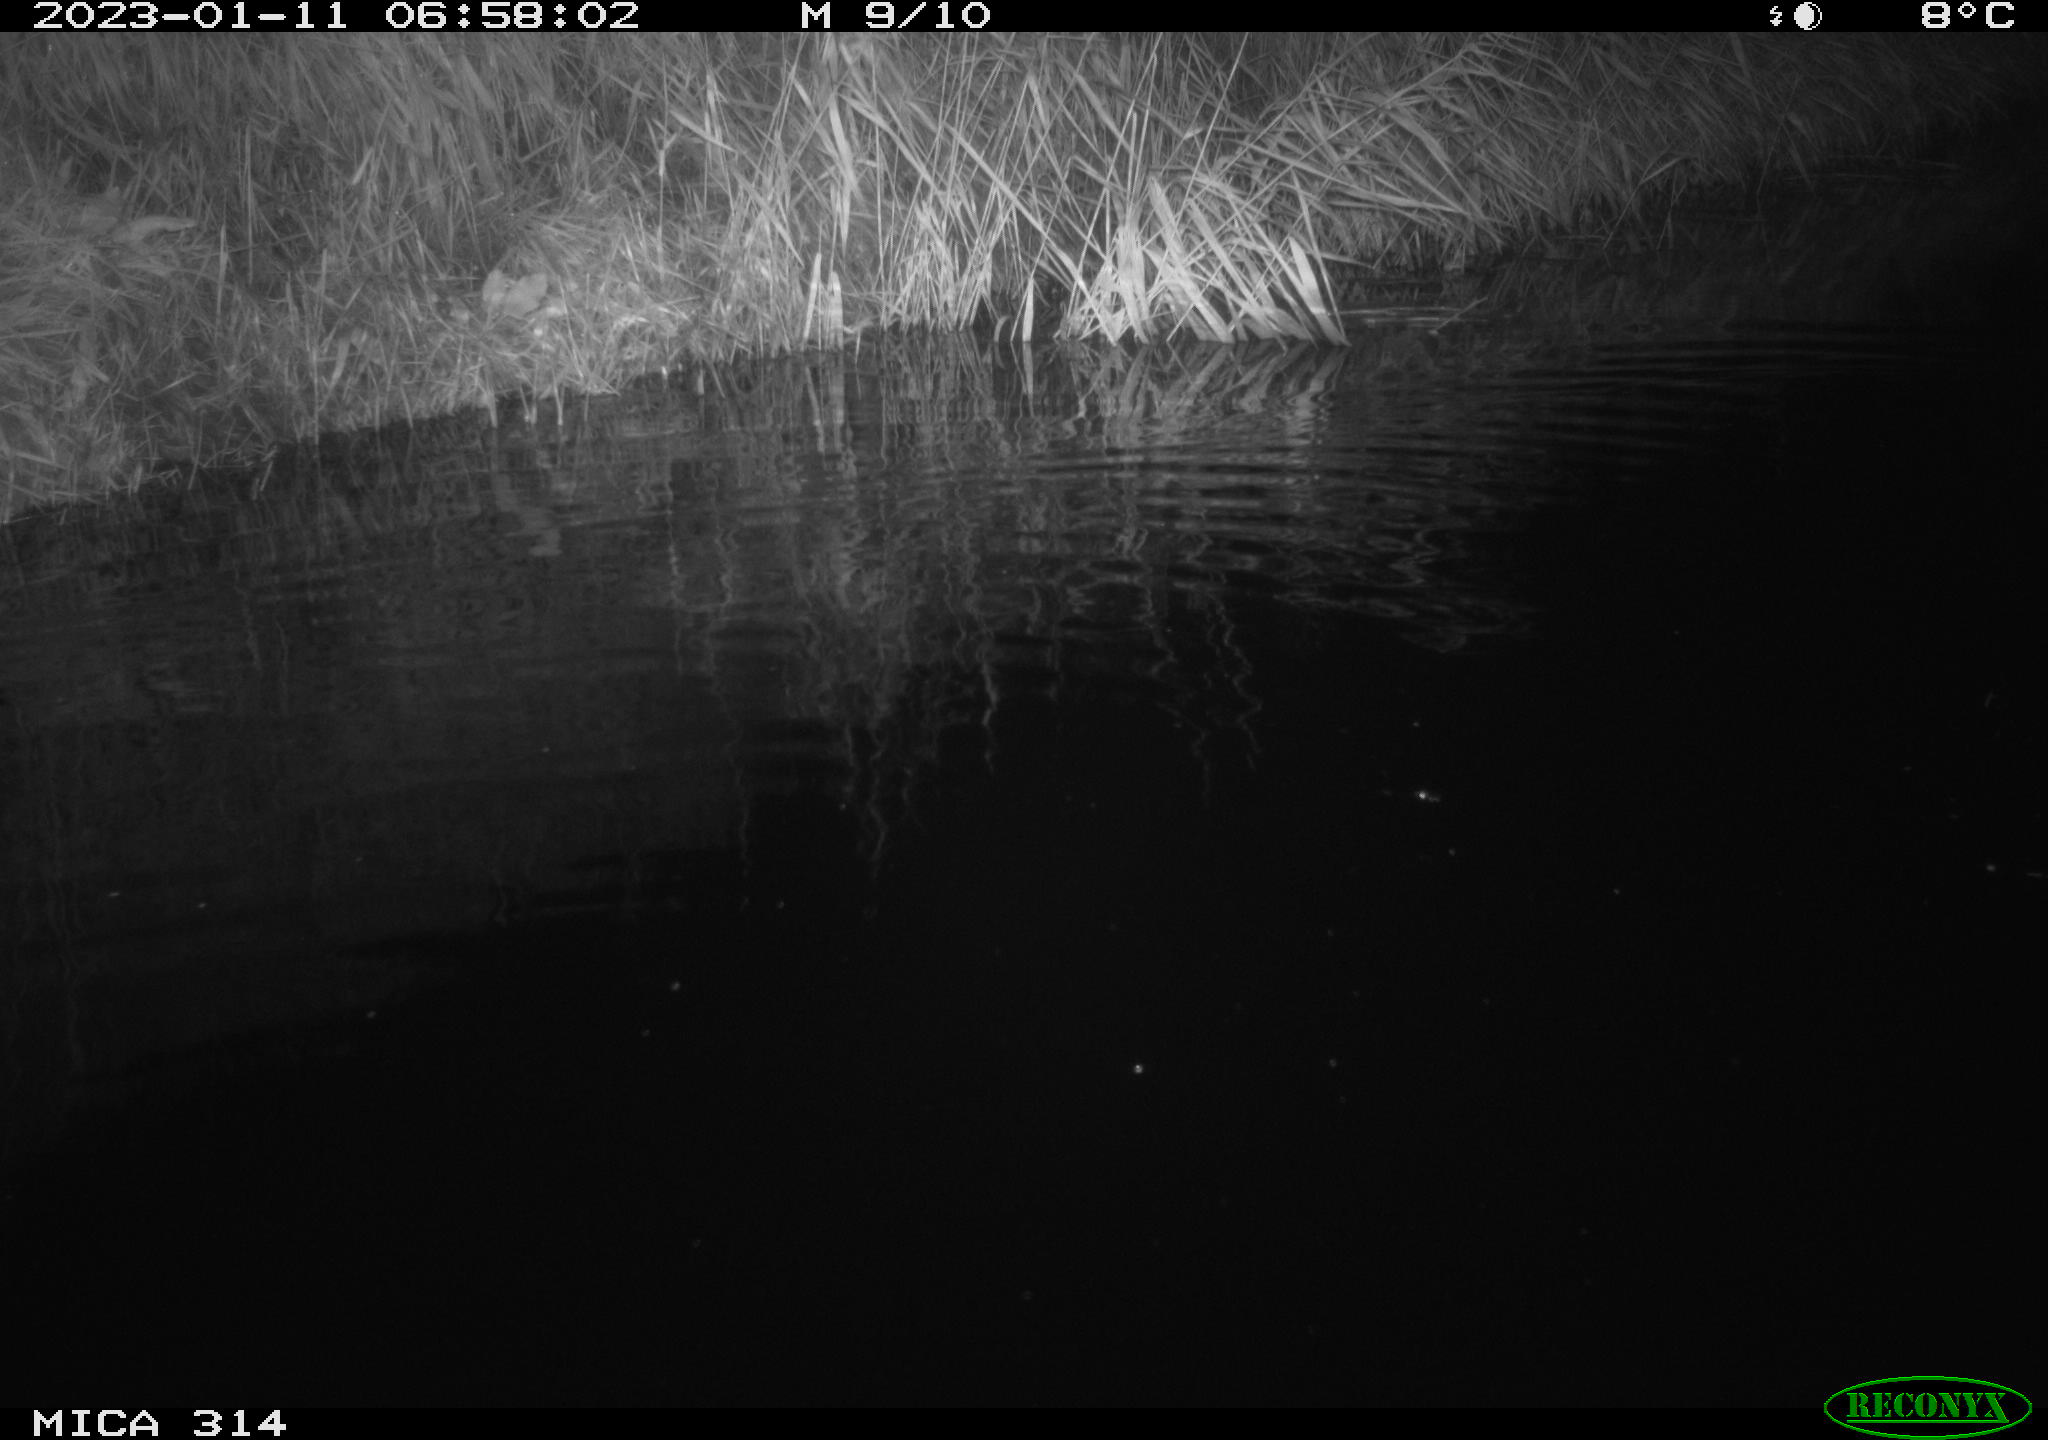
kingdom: Animalia
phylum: Chordata
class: Mammalia
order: Rodentia
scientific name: Rodentia
